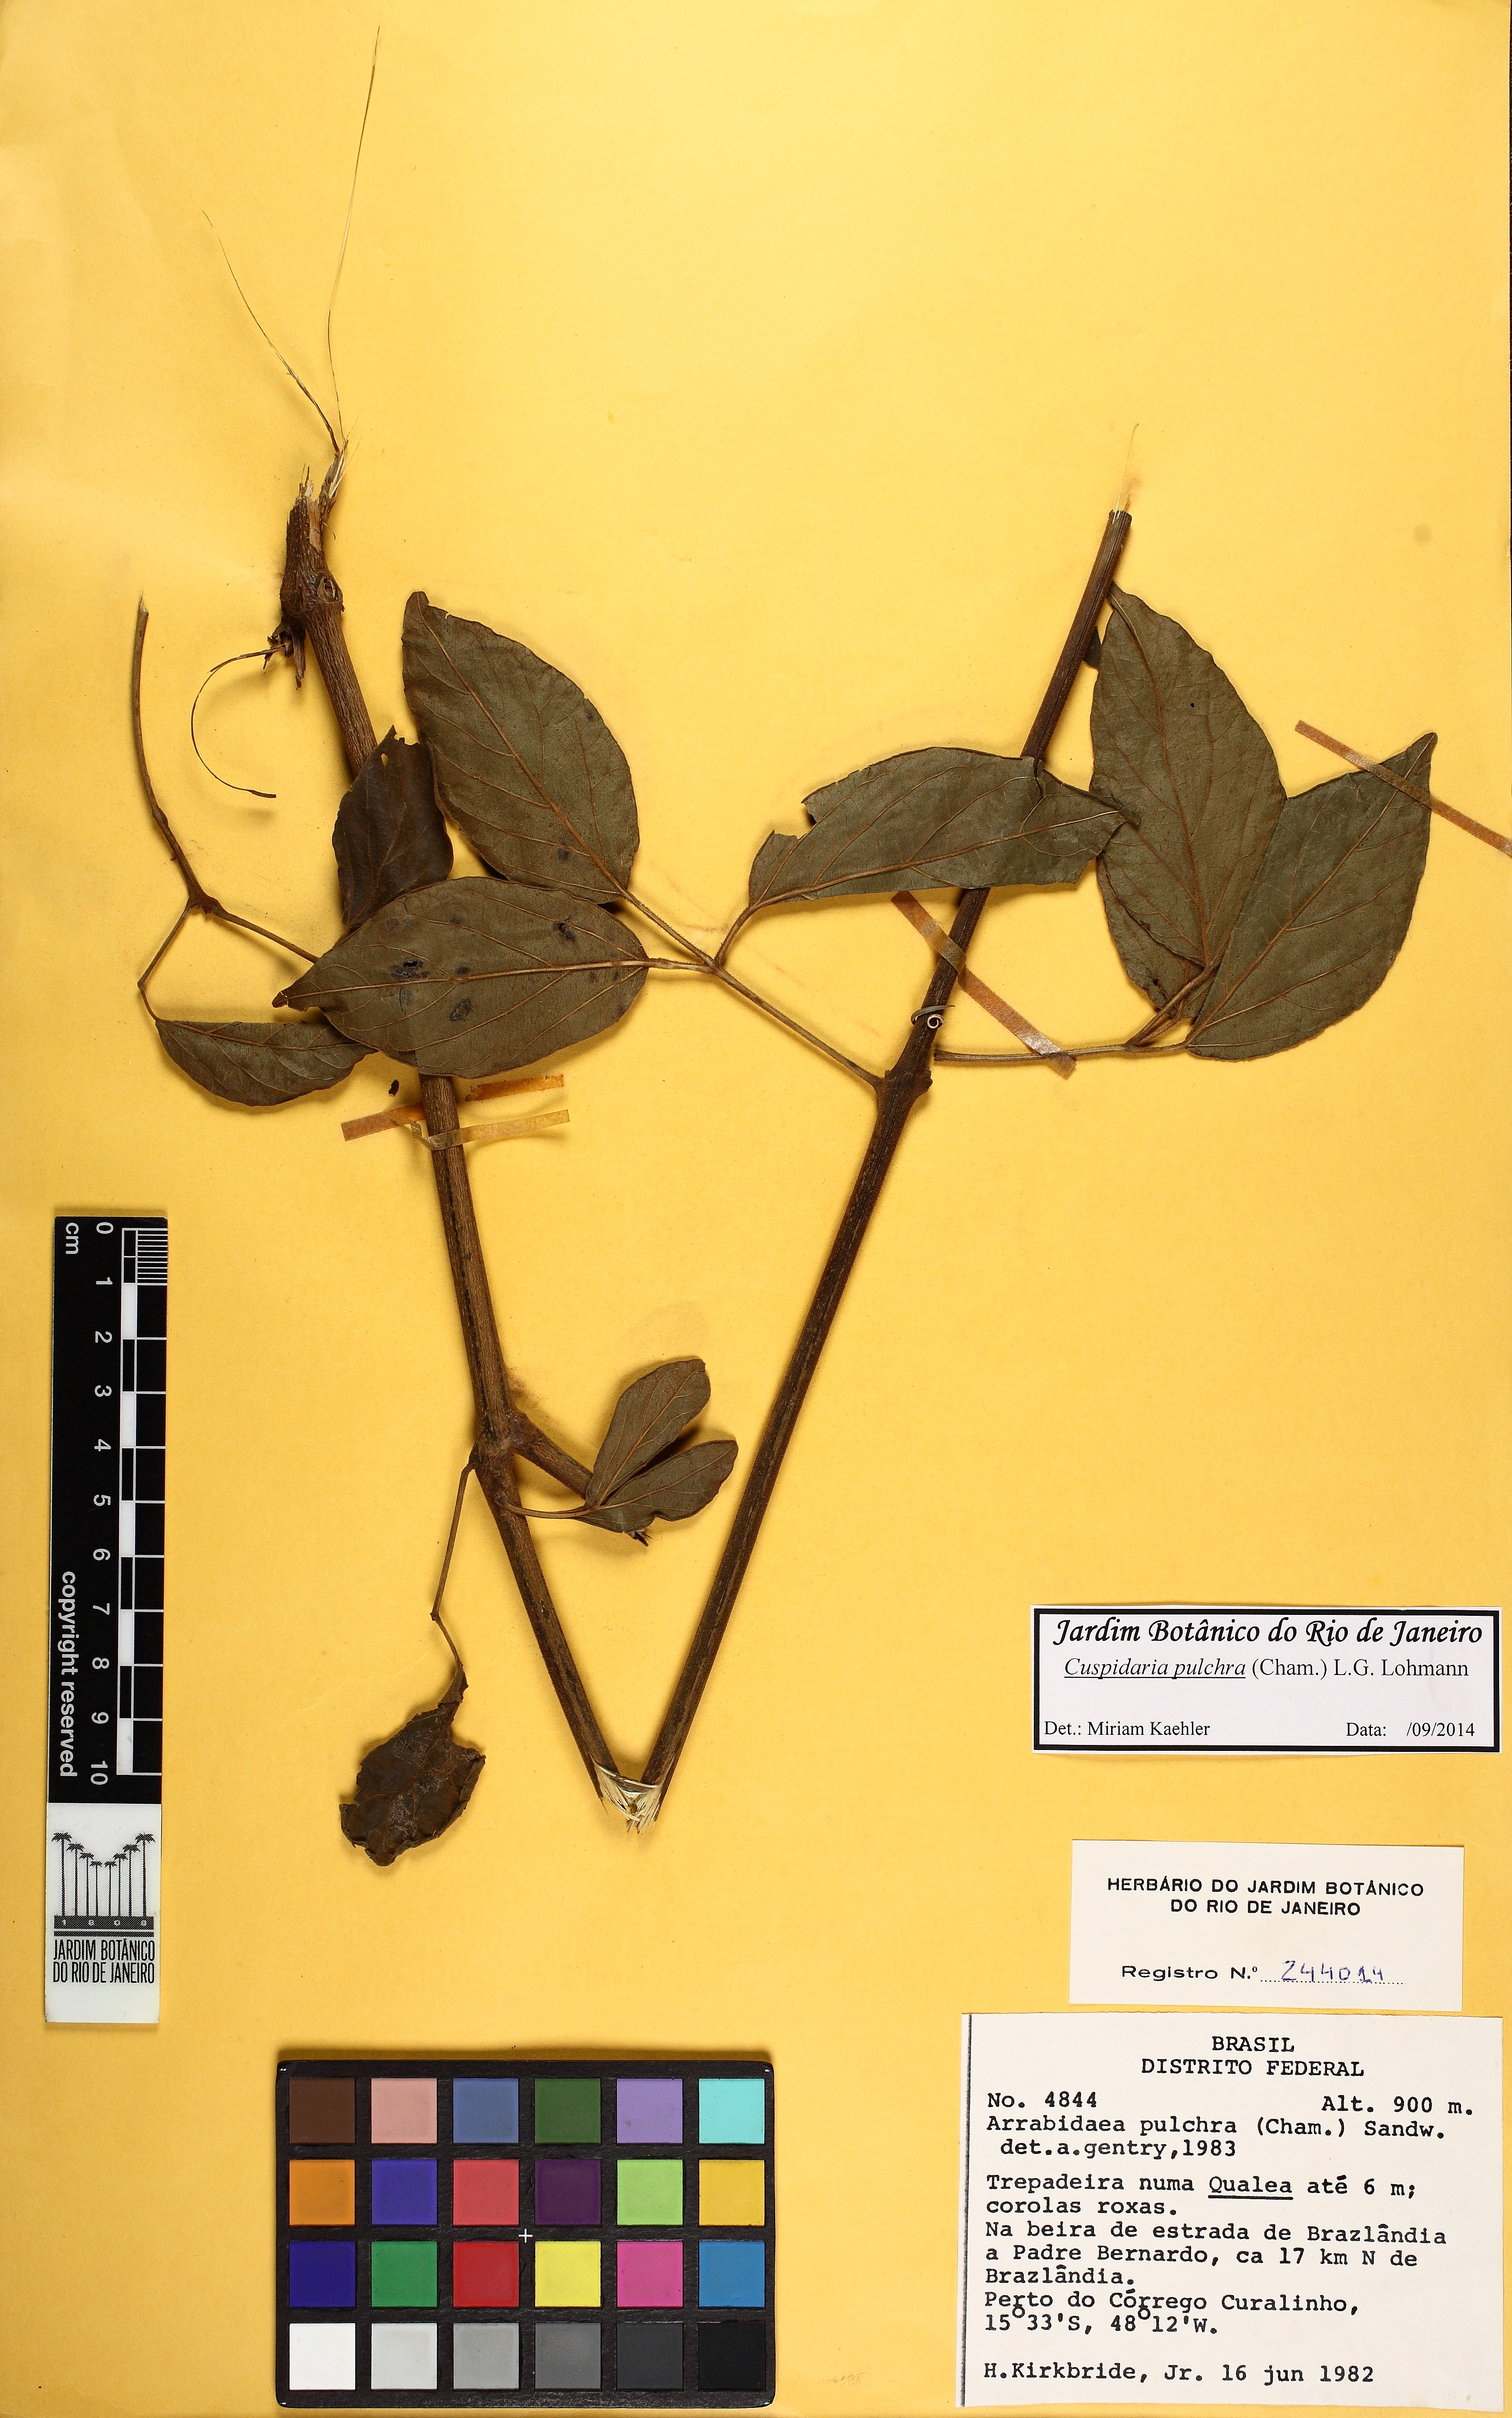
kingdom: Plantae
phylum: Tracheophyta
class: Magnoliopsida
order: Lamiales
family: Bignoniaceae
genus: Cuspidaria
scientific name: Cuspidaria pulchra
